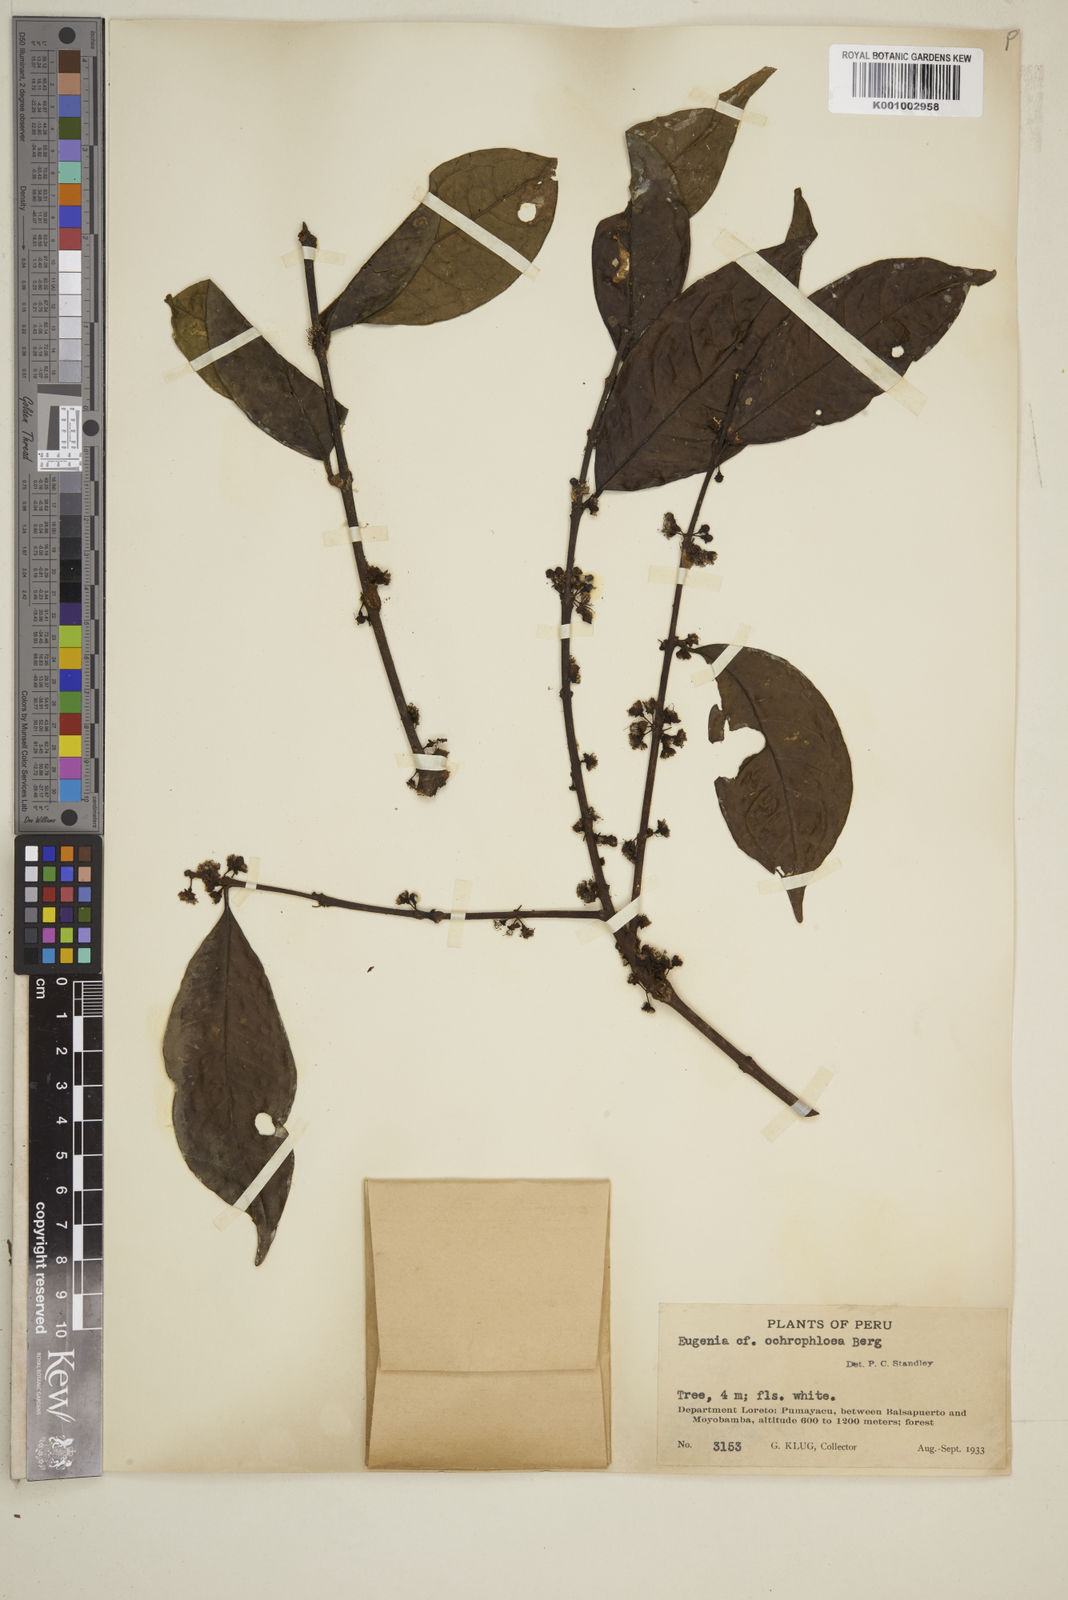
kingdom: Plantae
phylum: Tracheophyta
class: Magnoliopsida
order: Myrtales
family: Myrtaceae
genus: Eugenia
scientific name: Eugenia ochrophloea
